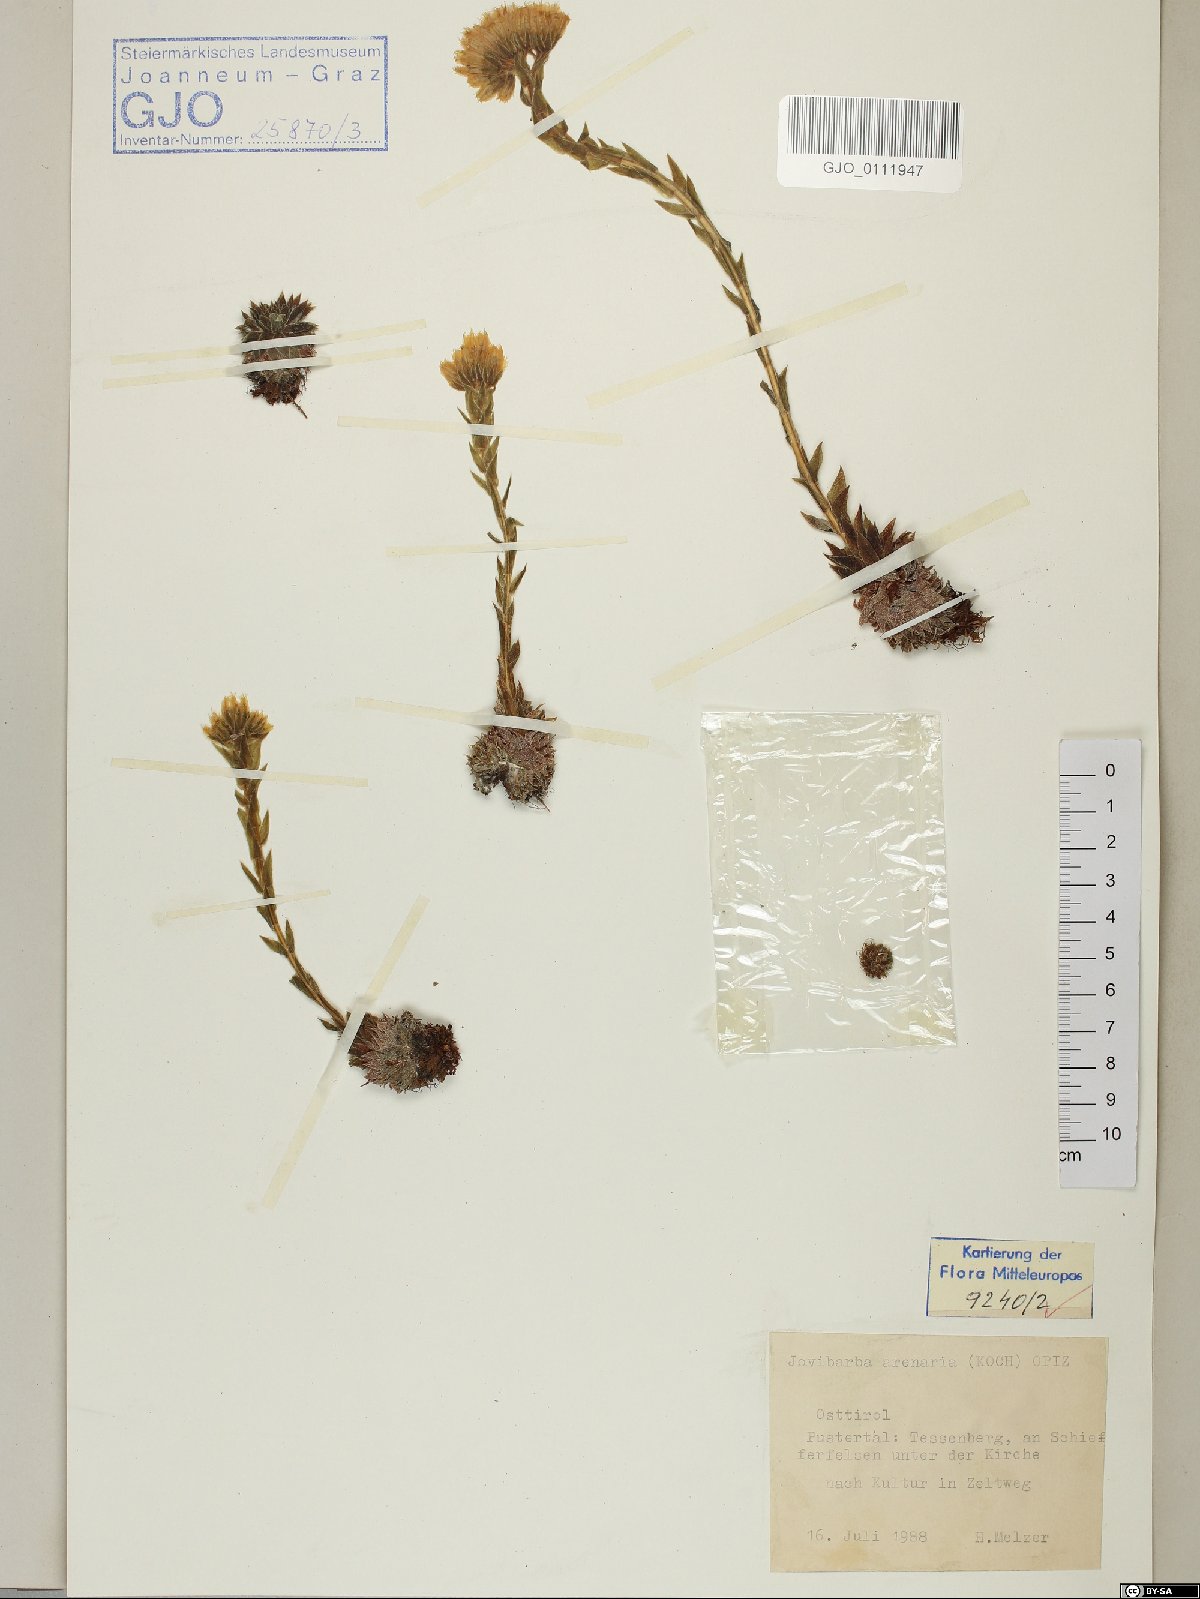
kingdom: Plantae
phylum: Tracheophyta
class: Magnoliopsida
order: Saxifragales
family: Crassulaceae
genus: Sempervivum
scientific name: Sempervivum globiferum
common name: Rolling hen-and-chicks
